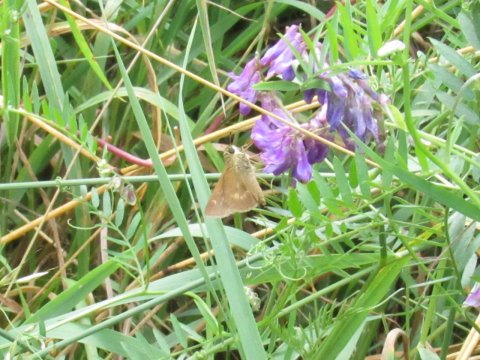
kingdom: Animalia
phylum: Arthropoda
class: Insecta
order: Lepidoptera
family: Hesperiidae
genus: Polites
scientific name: Polites egeremet
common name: Northern Broken-Dash
